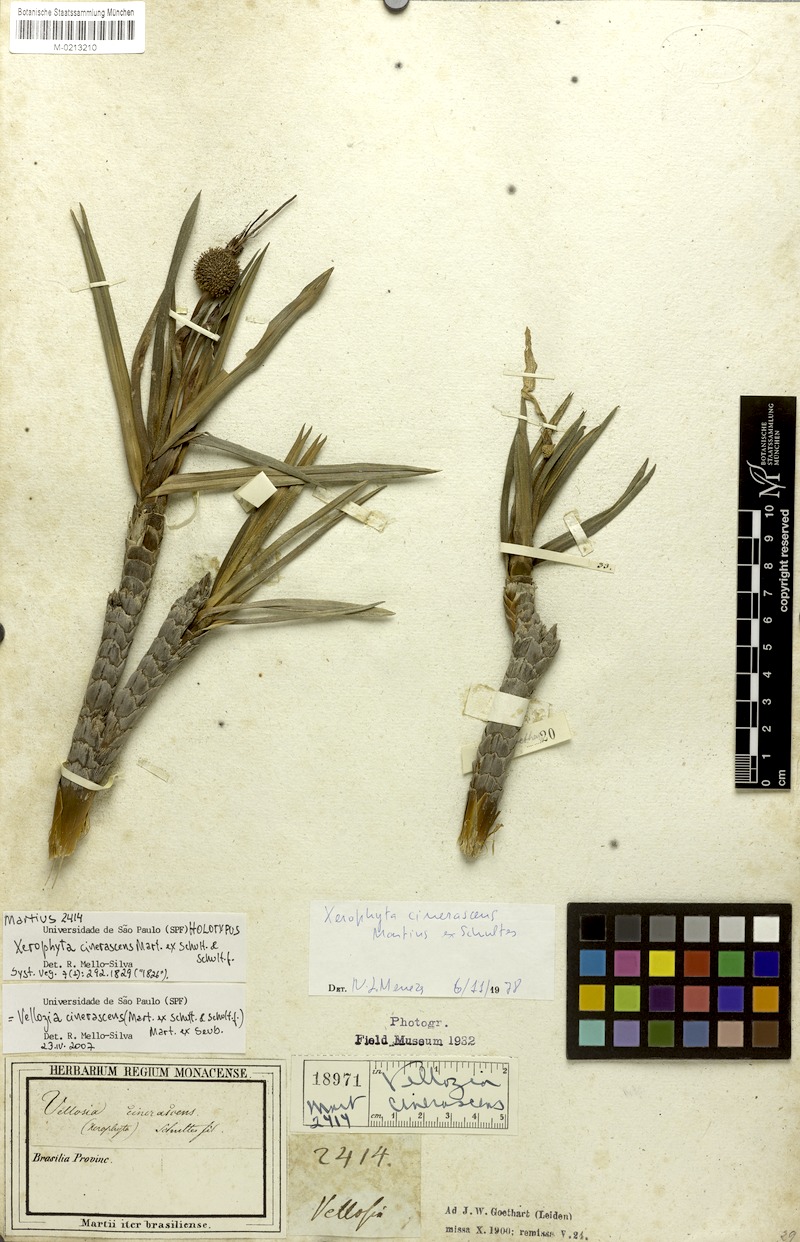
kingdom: Plantae
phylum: Tracheophyta
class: Liliopsida
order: Pandanales
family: Velloziaceae
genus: Vellozia
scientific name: Vellozia cinerascens
